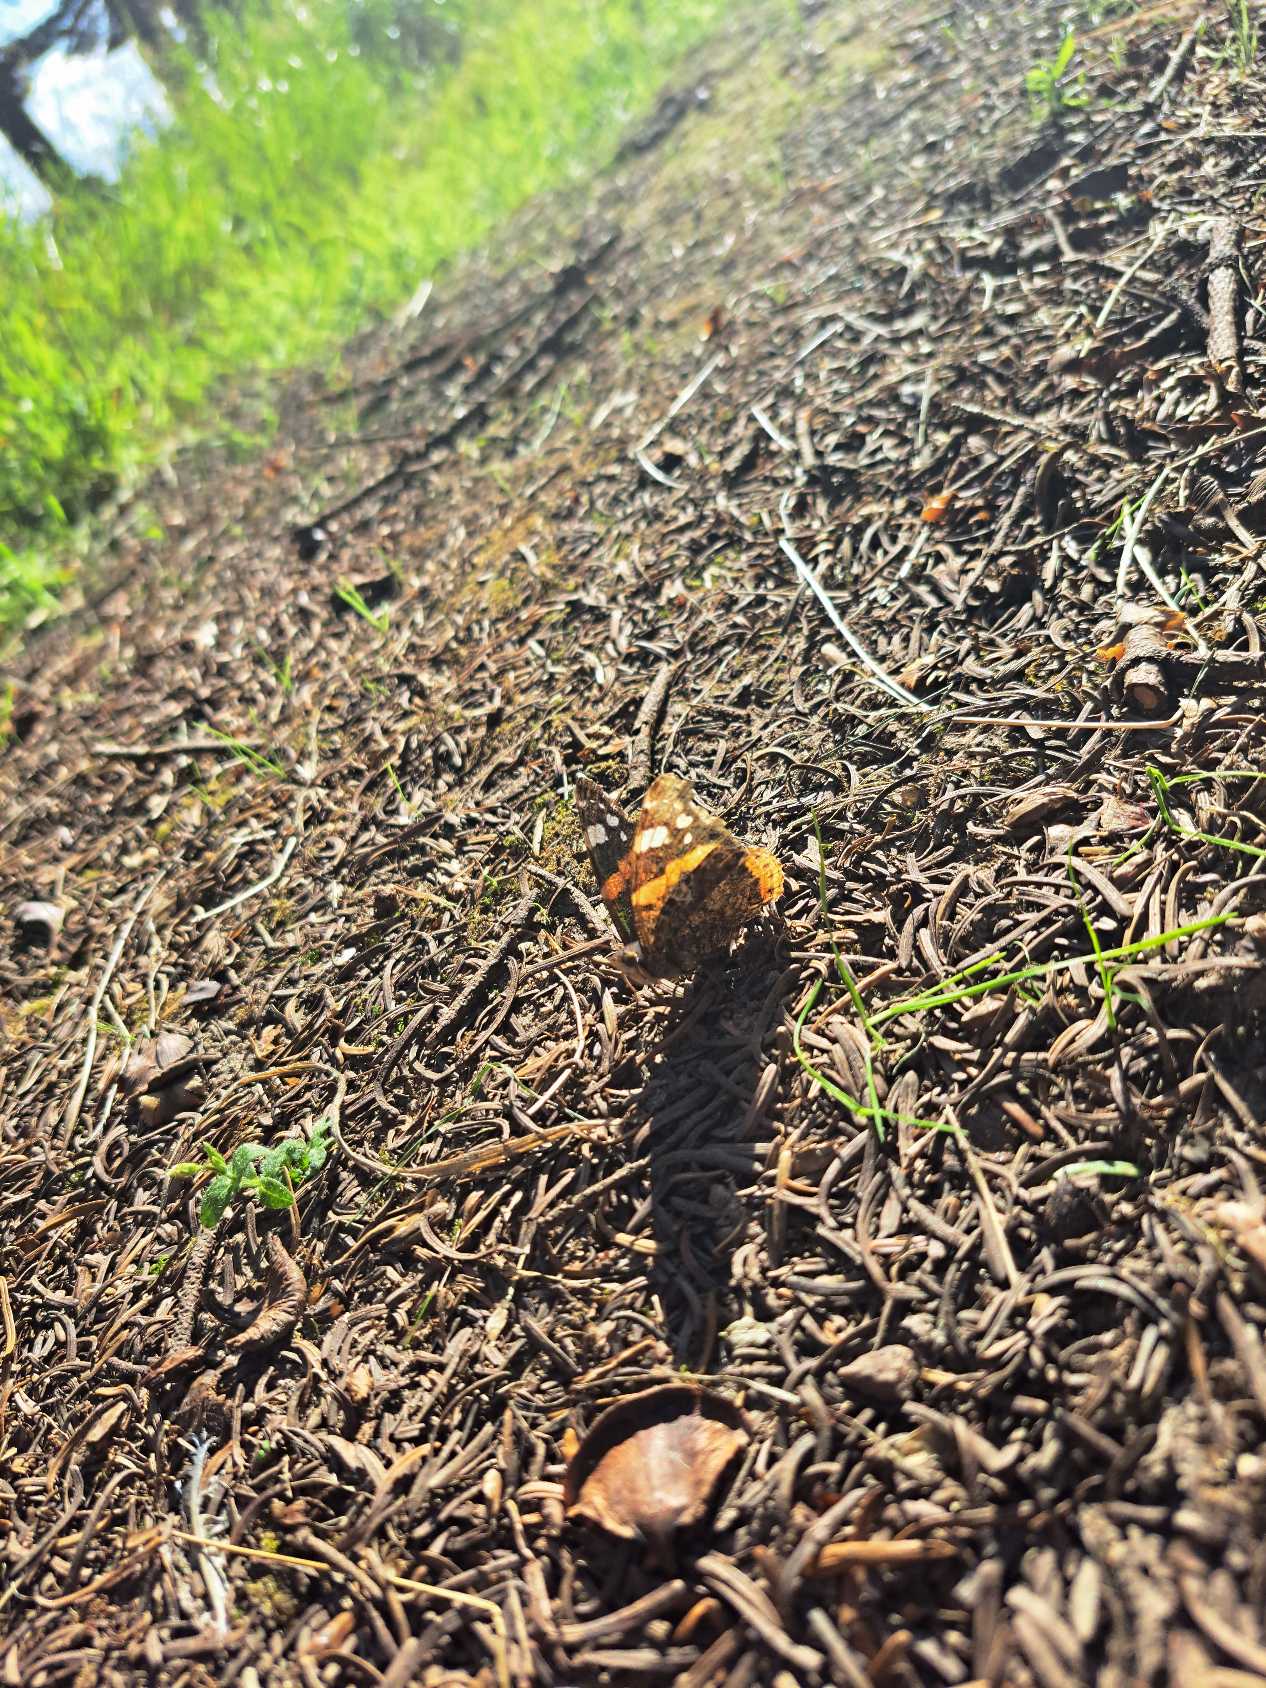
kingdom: Animalia
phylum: Arthropoda
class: Insecta
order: Lepidoptera
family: Nymphalidae
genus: Vanessa
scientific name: Vanessa atalanta
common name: Admiral
